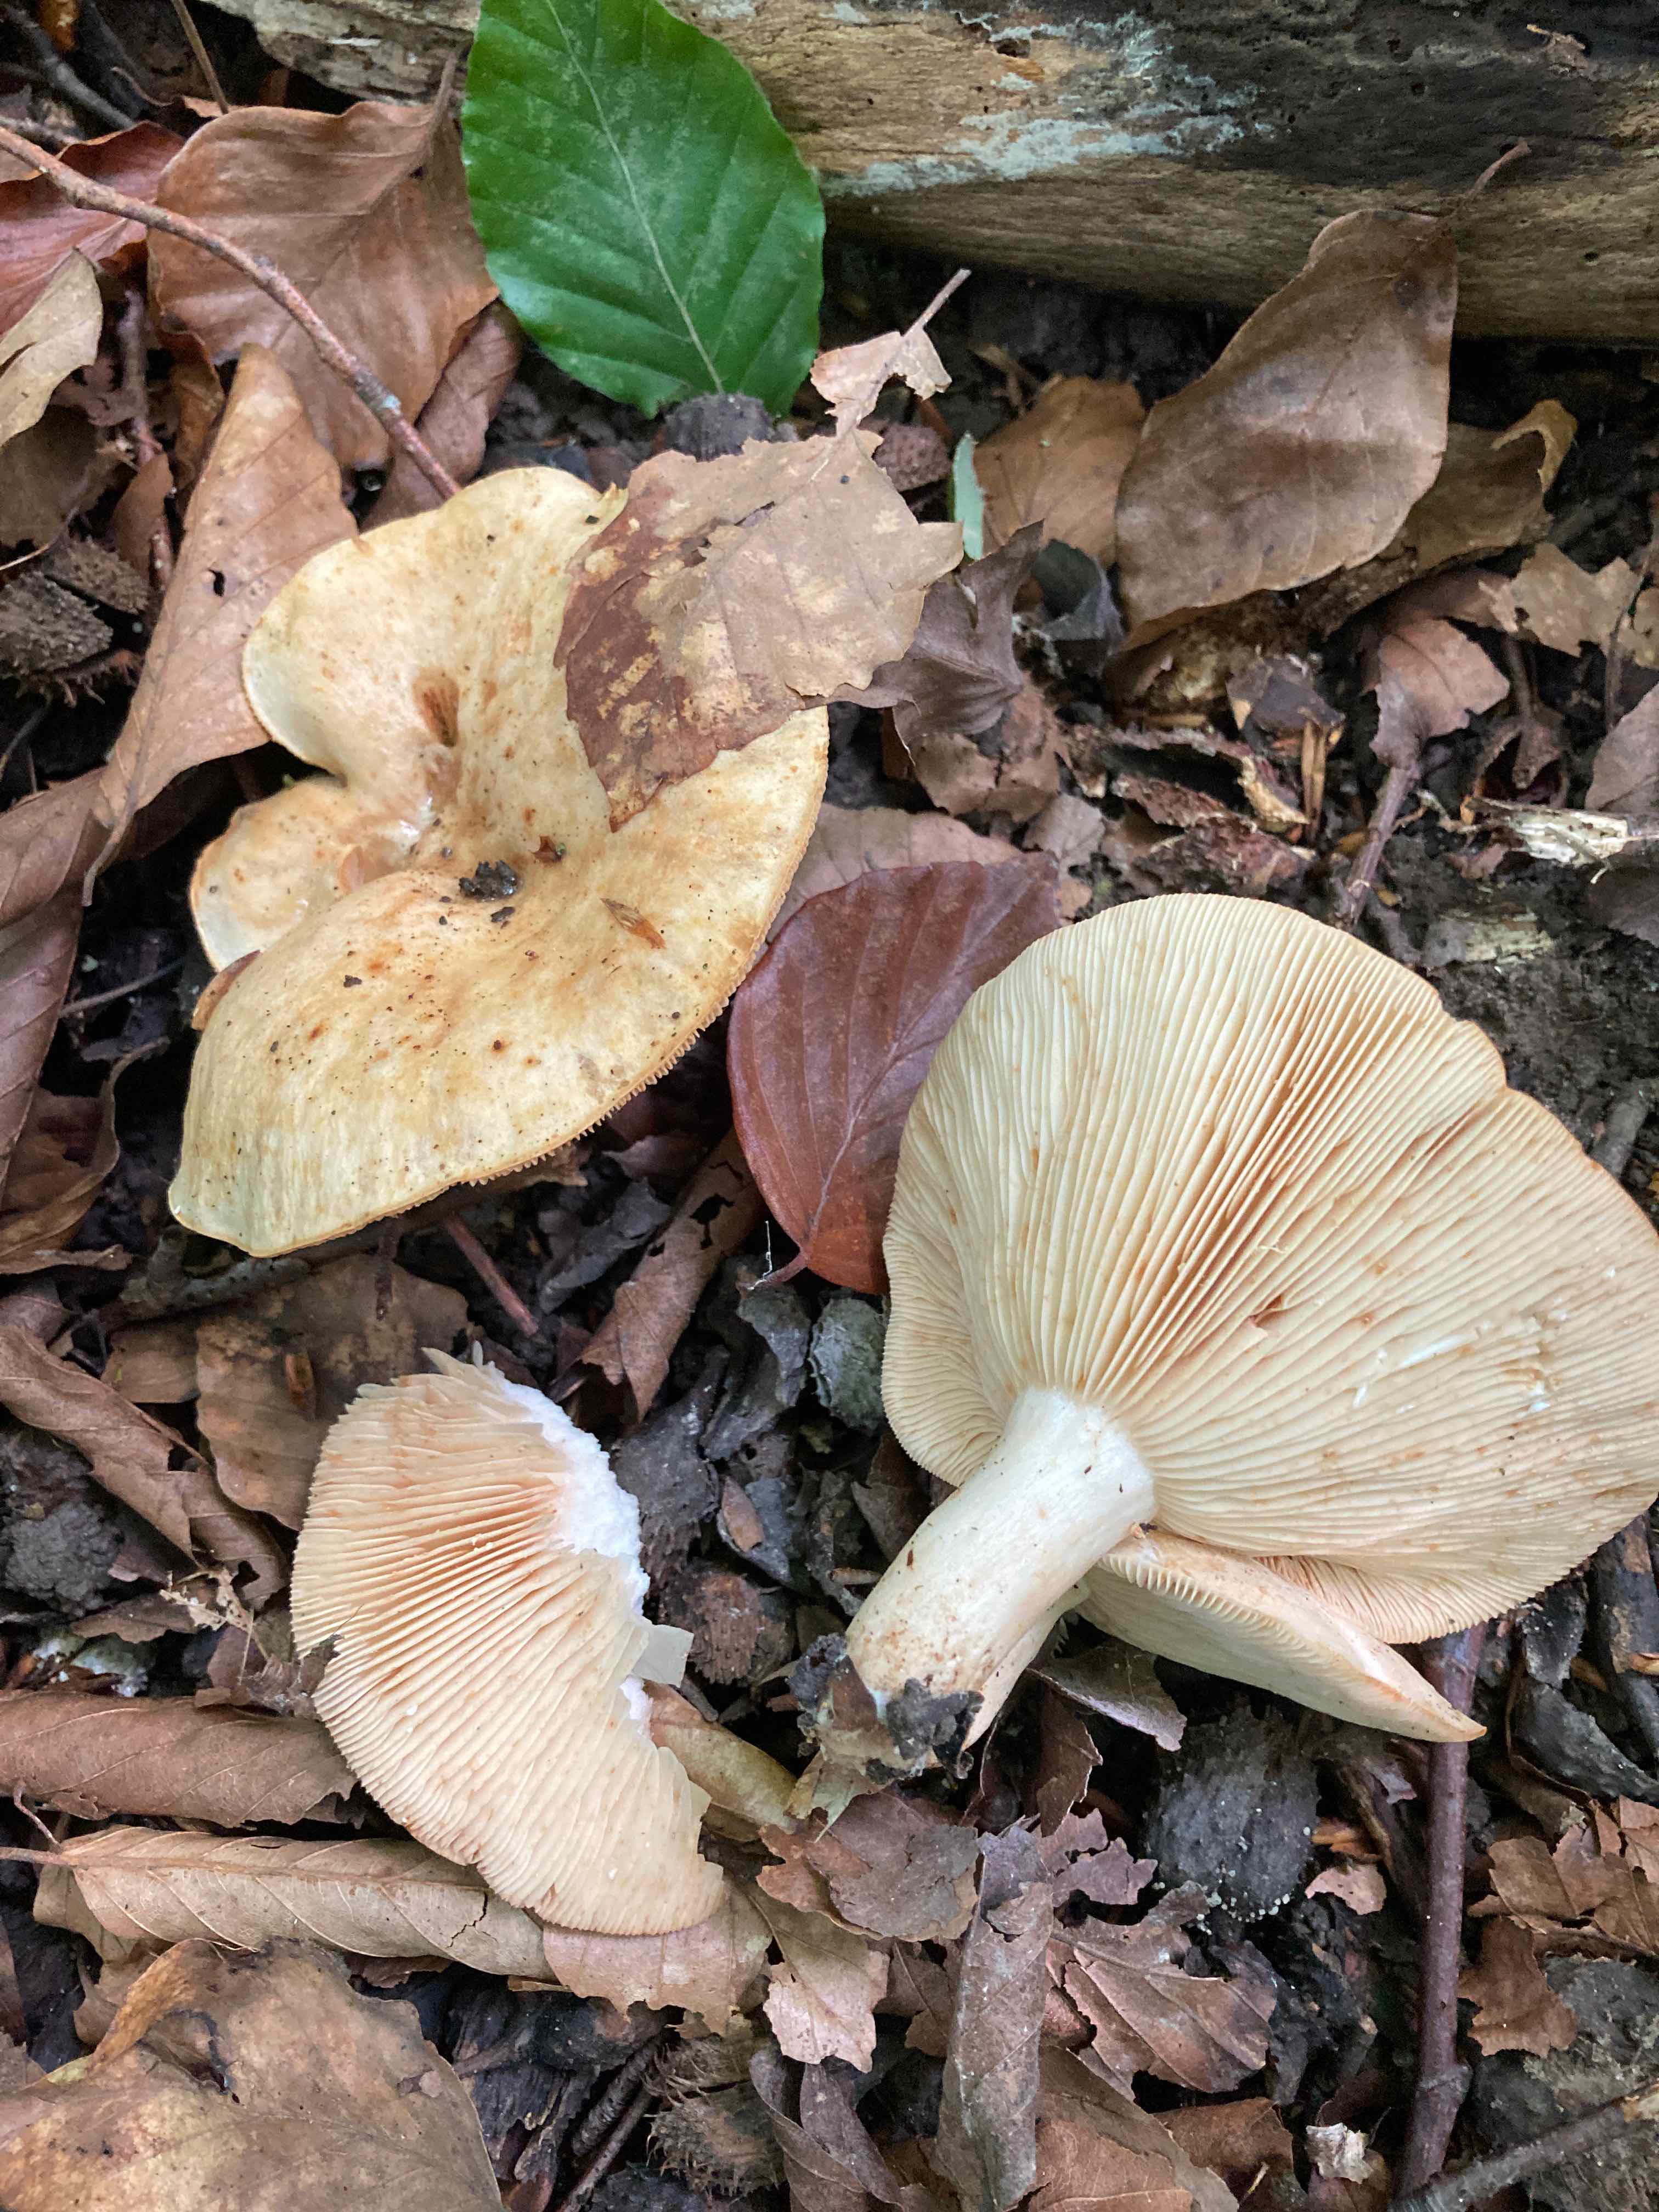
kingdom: Fungi
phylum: Basidiomycota
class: Agaricomycetes
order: Russulales
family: Russulaceae
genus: Lactarius
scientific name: Lactarius pallidus
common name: bleg mælkehat
